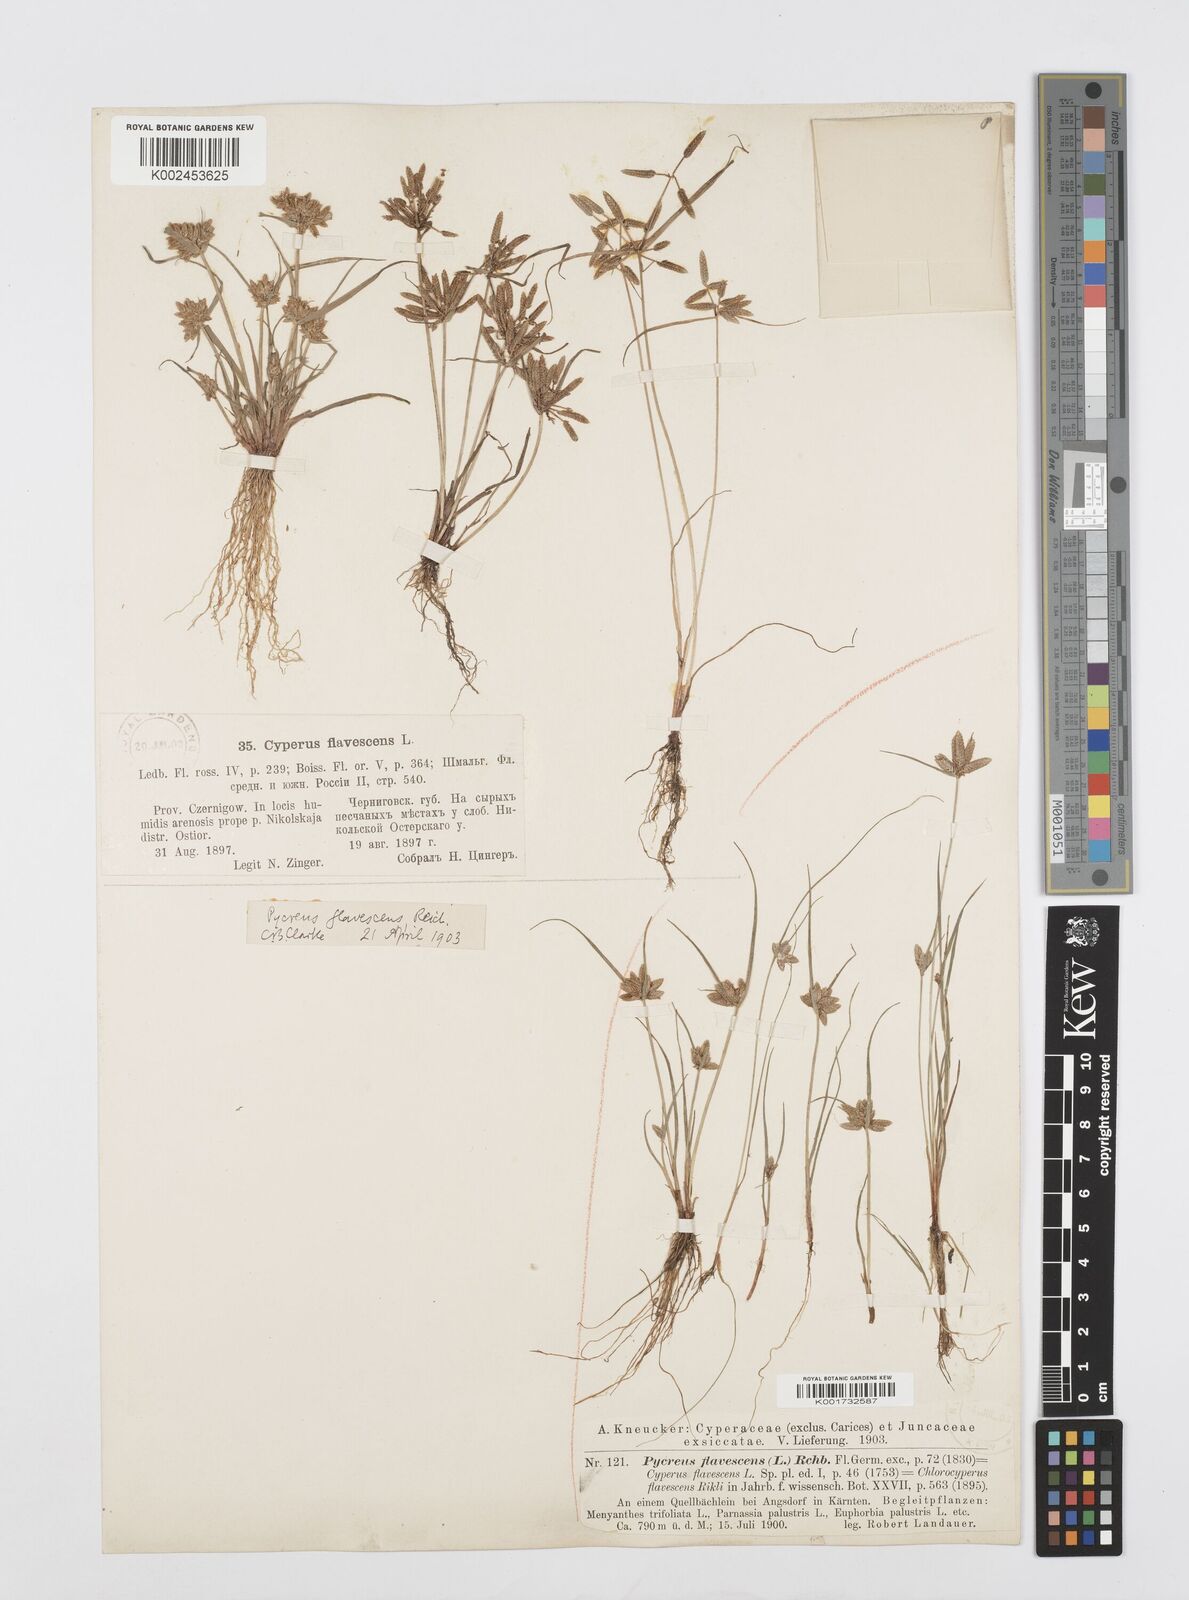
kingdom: Plantae
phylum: Tracheophyta
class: Liliopsida
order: Poales
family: Cyperaceae
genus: Cyperus
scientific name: Cyperus flavescens
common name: Yellow galingale
